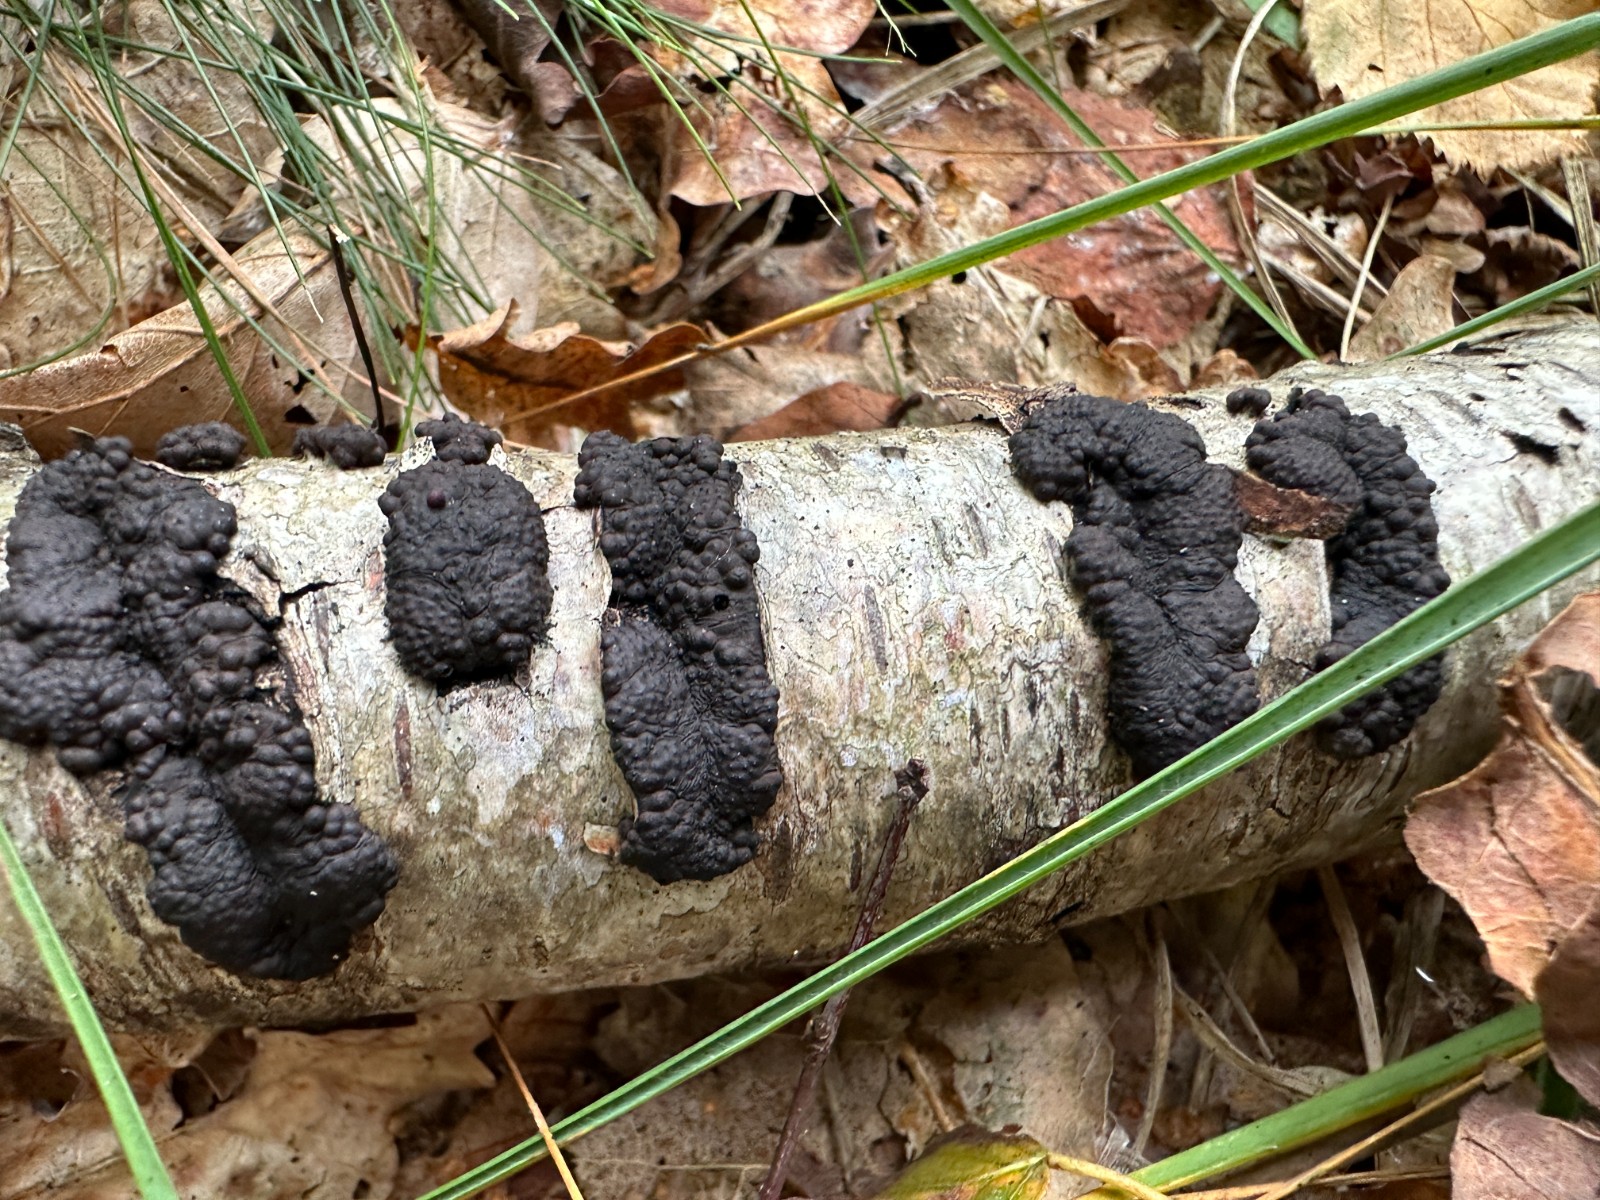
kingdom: Fungi
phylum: Ascomycota
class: Sordariomycetes
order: Xylariales
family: Hypoxylaceae
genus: Jackrogersella
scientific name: Jackrogersella multiformis
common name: foranderlig kulbær
